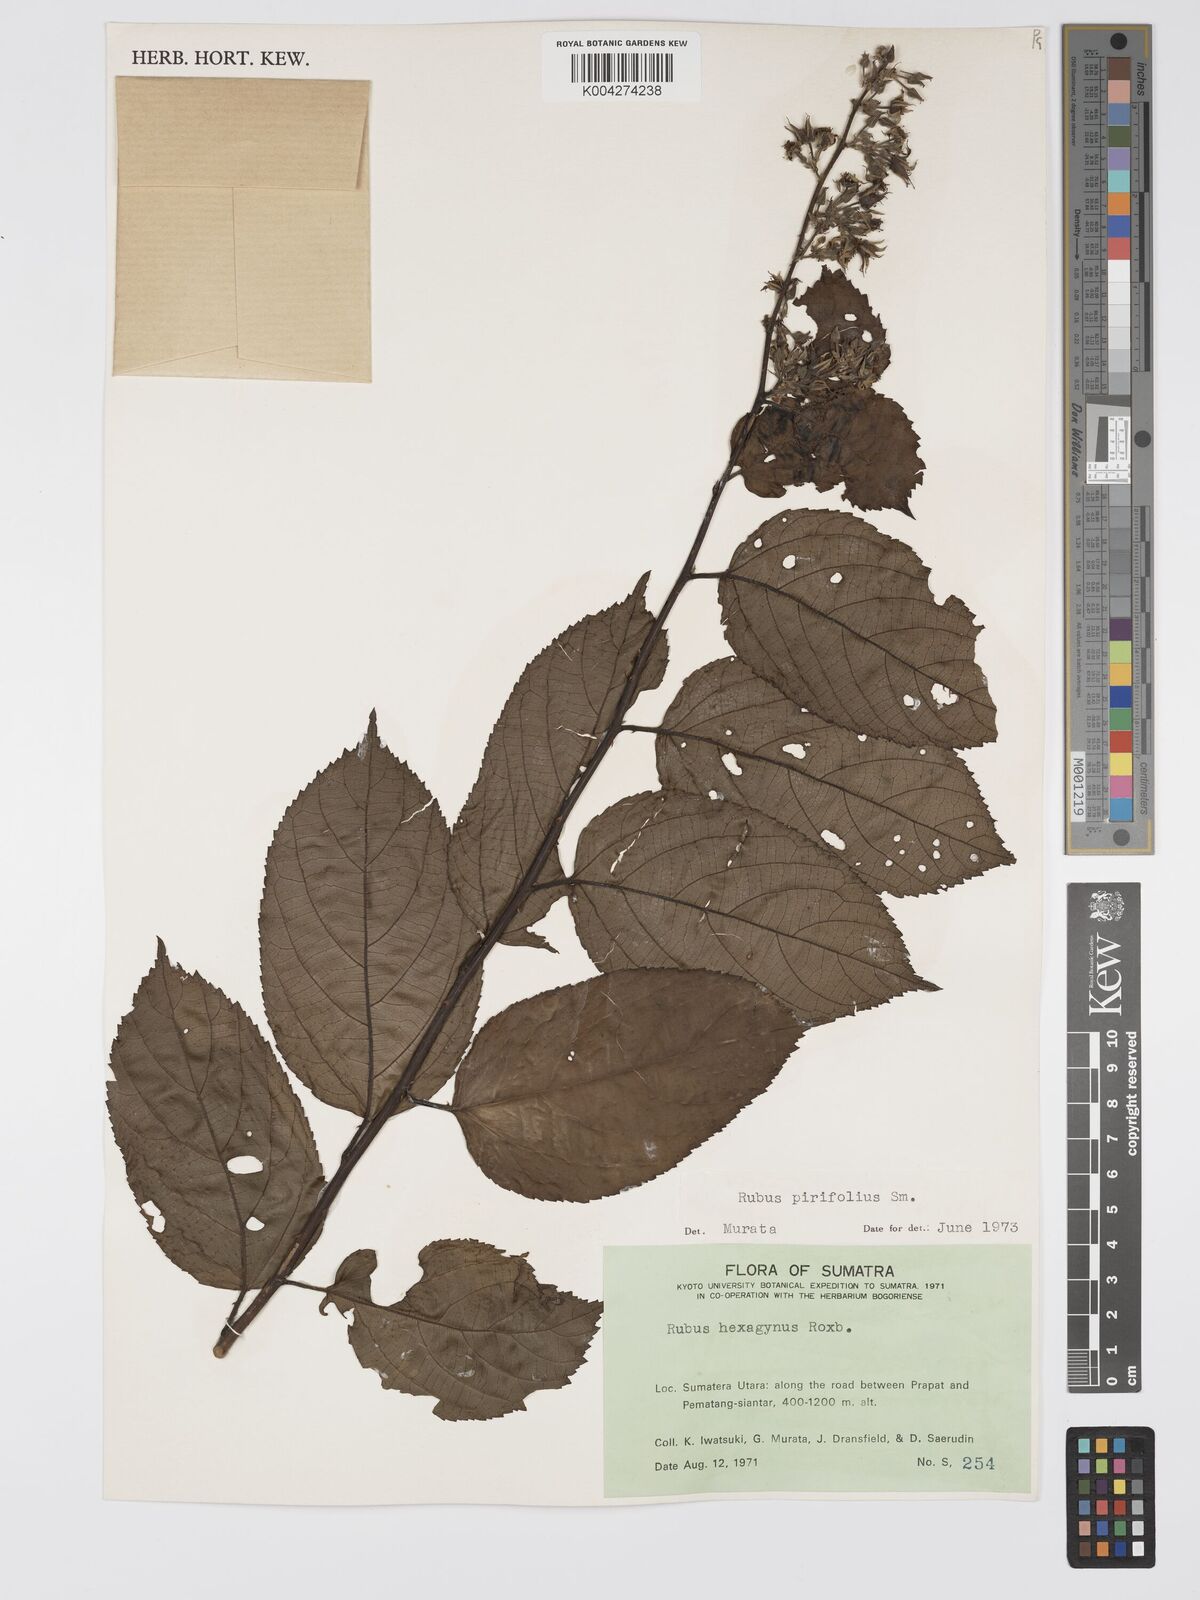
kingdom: Plantae
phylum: Tracheophyta
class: Magnoliopsida
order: Rosales
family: Rosaceae
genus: Rubus
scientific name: Rubus pirifolius
